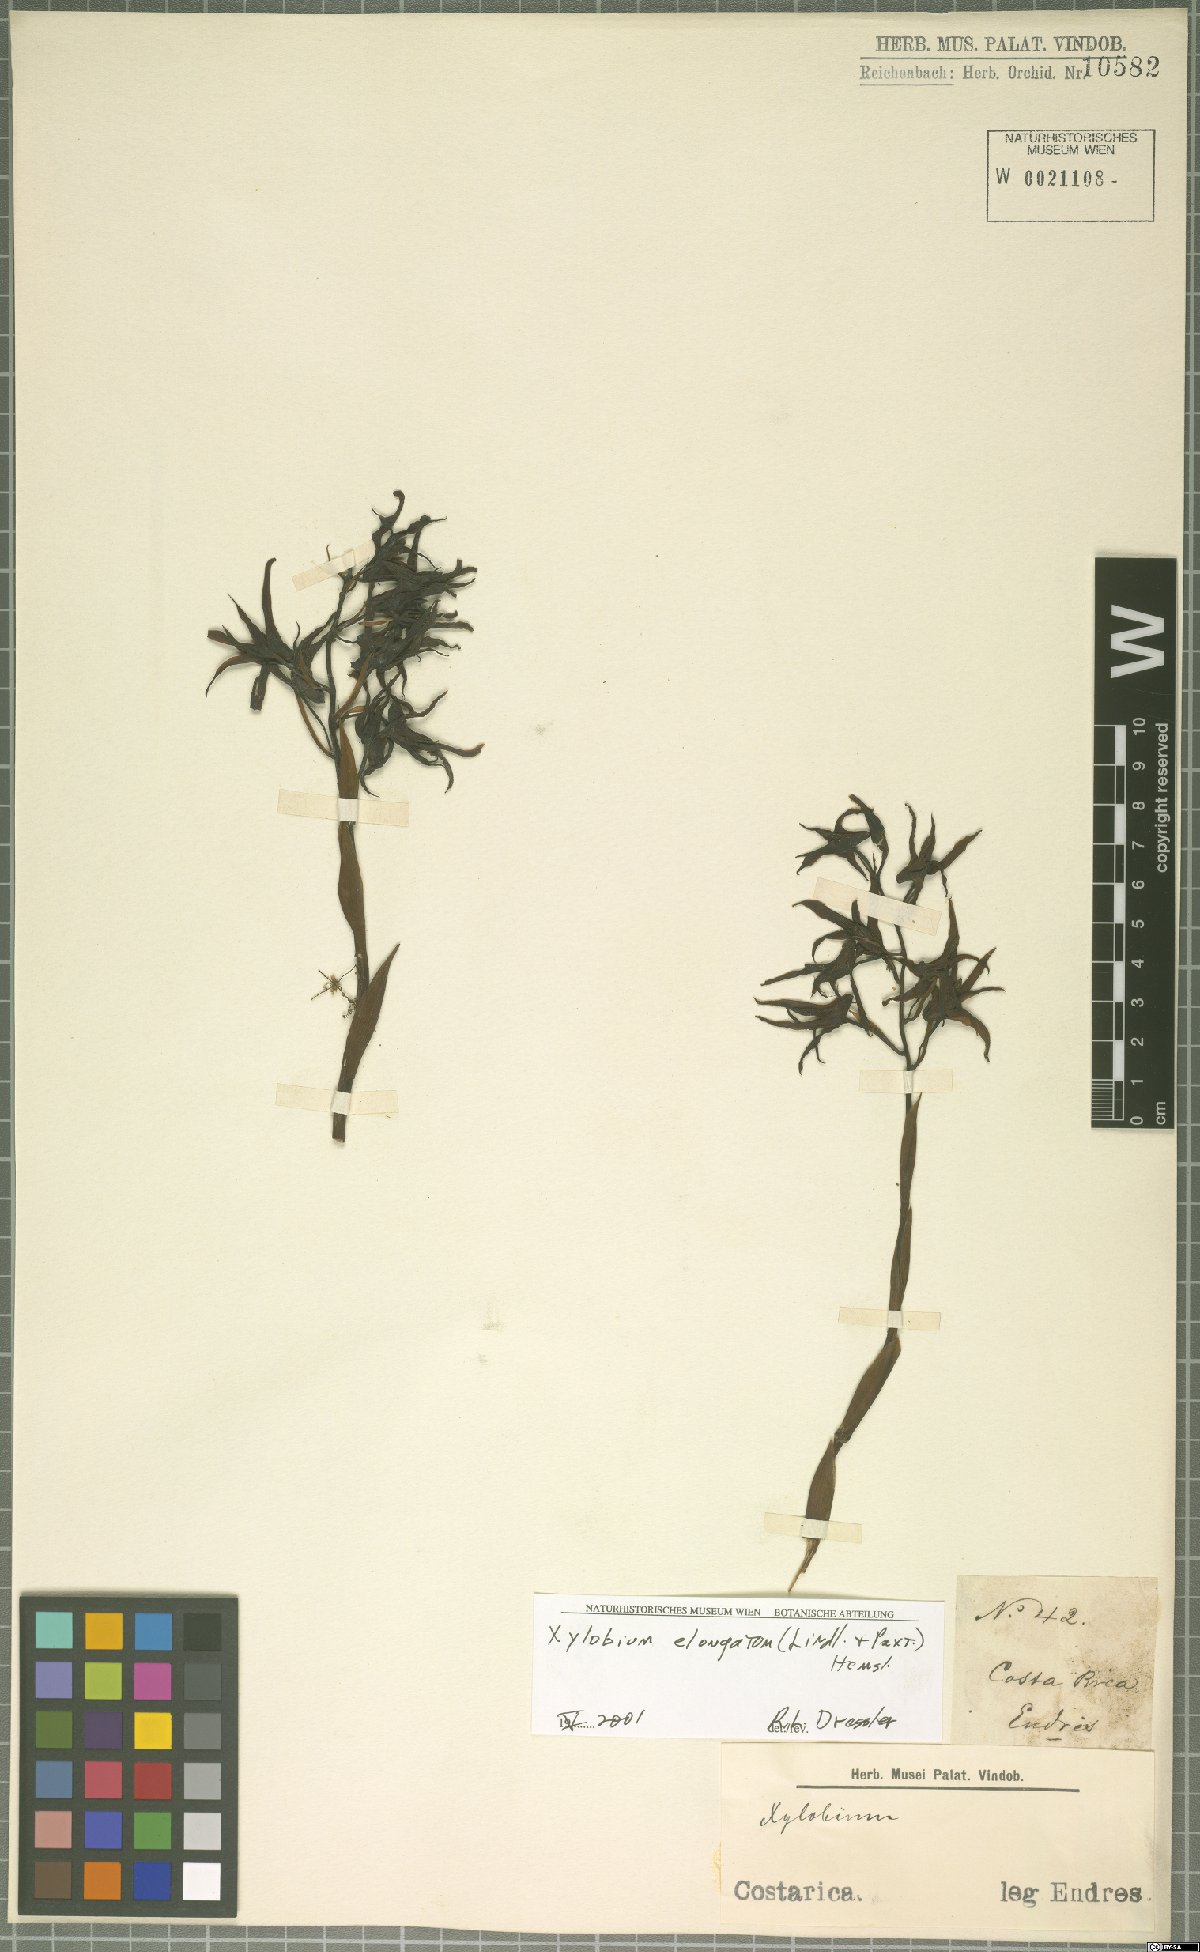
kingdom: Plantae
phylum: Tracheophyta
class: Liliopsida
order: Asparagales
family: Orchidaceae
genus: Xylobium
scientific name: Xylobium elongatum
